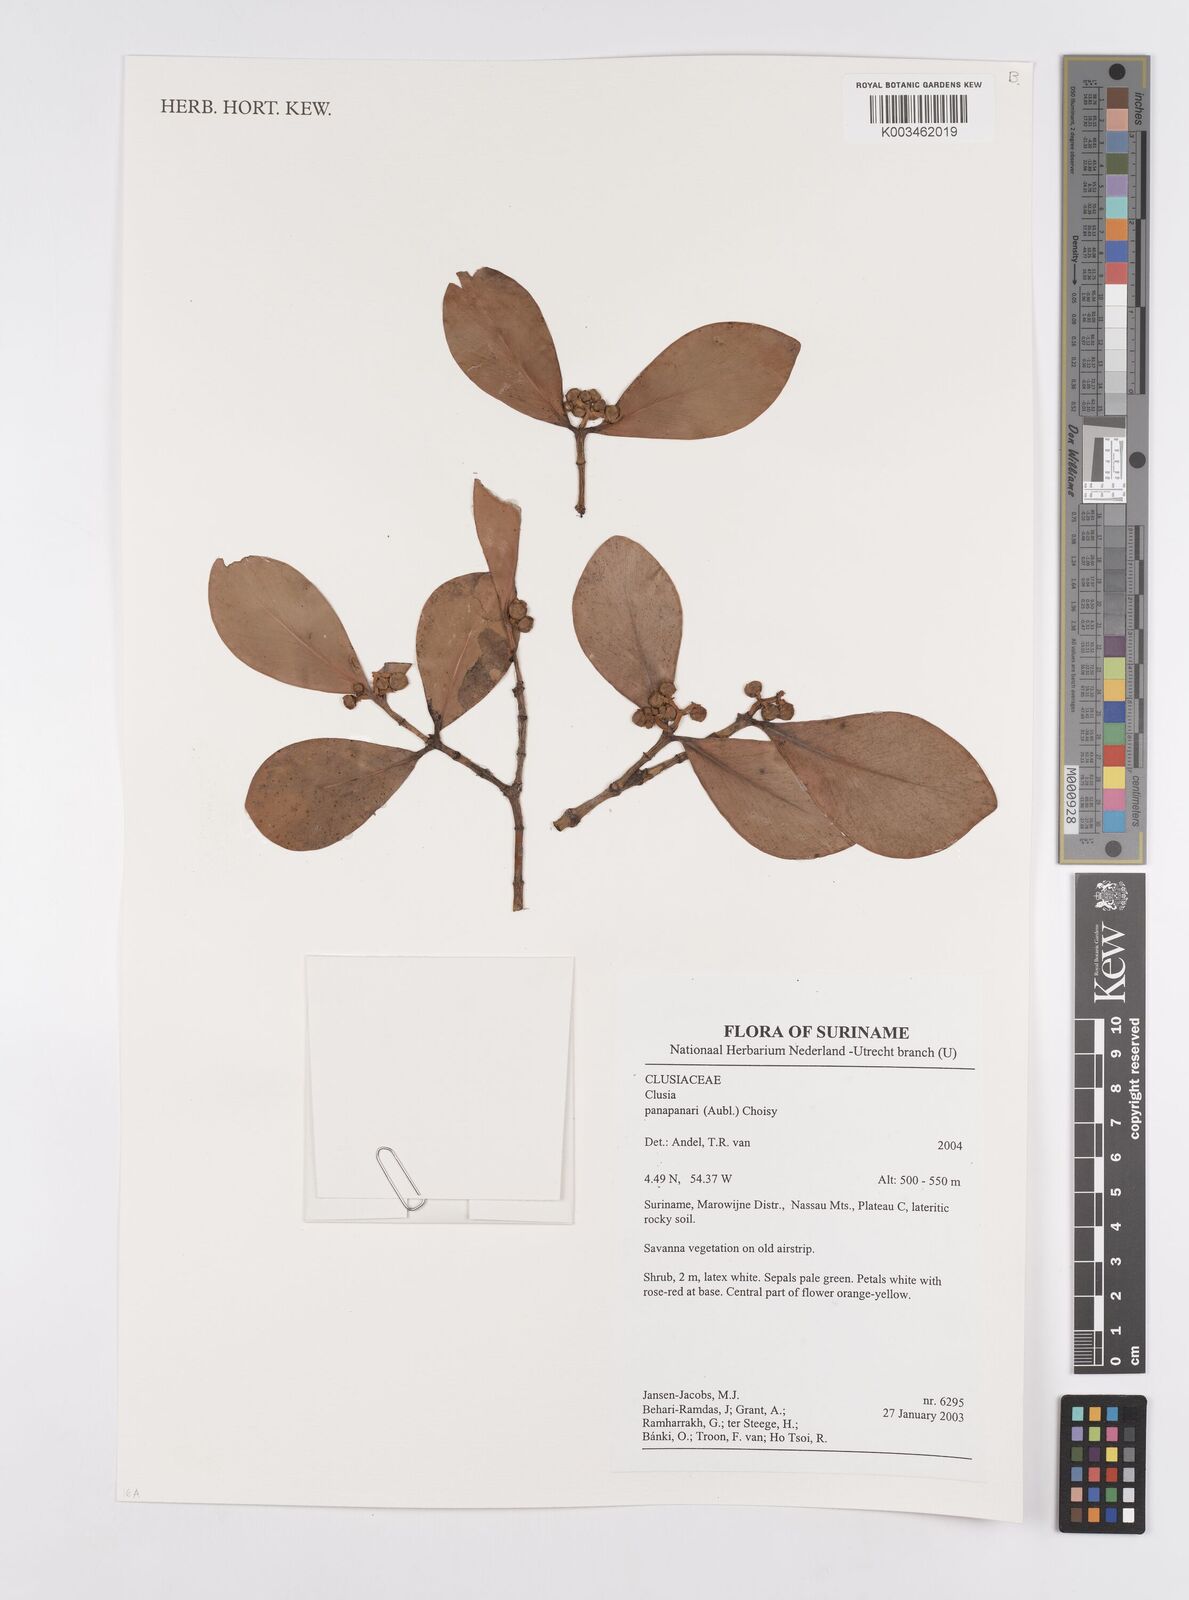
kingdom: Plantae
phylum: Tracheophyta
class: Magnoliopsida
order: Malpighiales
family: Clusiaceae
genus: Clusia
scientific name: Clusia panapanari
